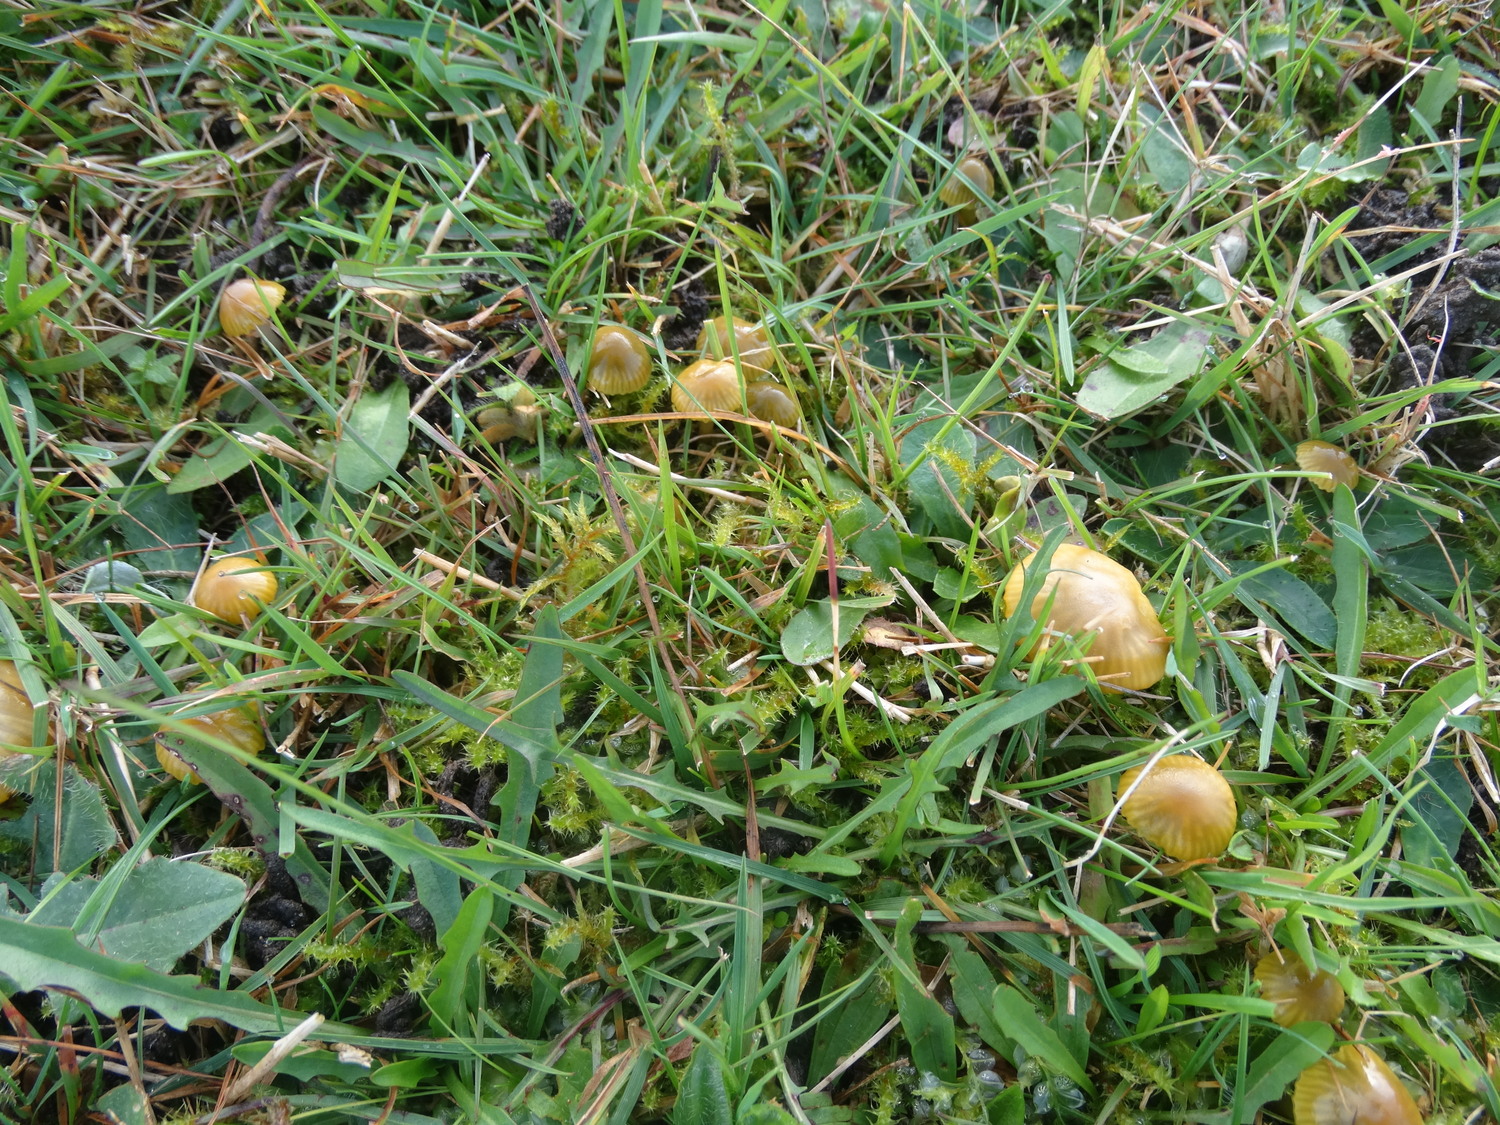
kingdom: Fungi
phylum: Basidiomycota
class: Agaricomycetes
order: Agaricales
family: Hygrophoraceae
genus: Gliophorus
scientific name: Gliophorus psittacinus
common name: papegøje-vokshat
